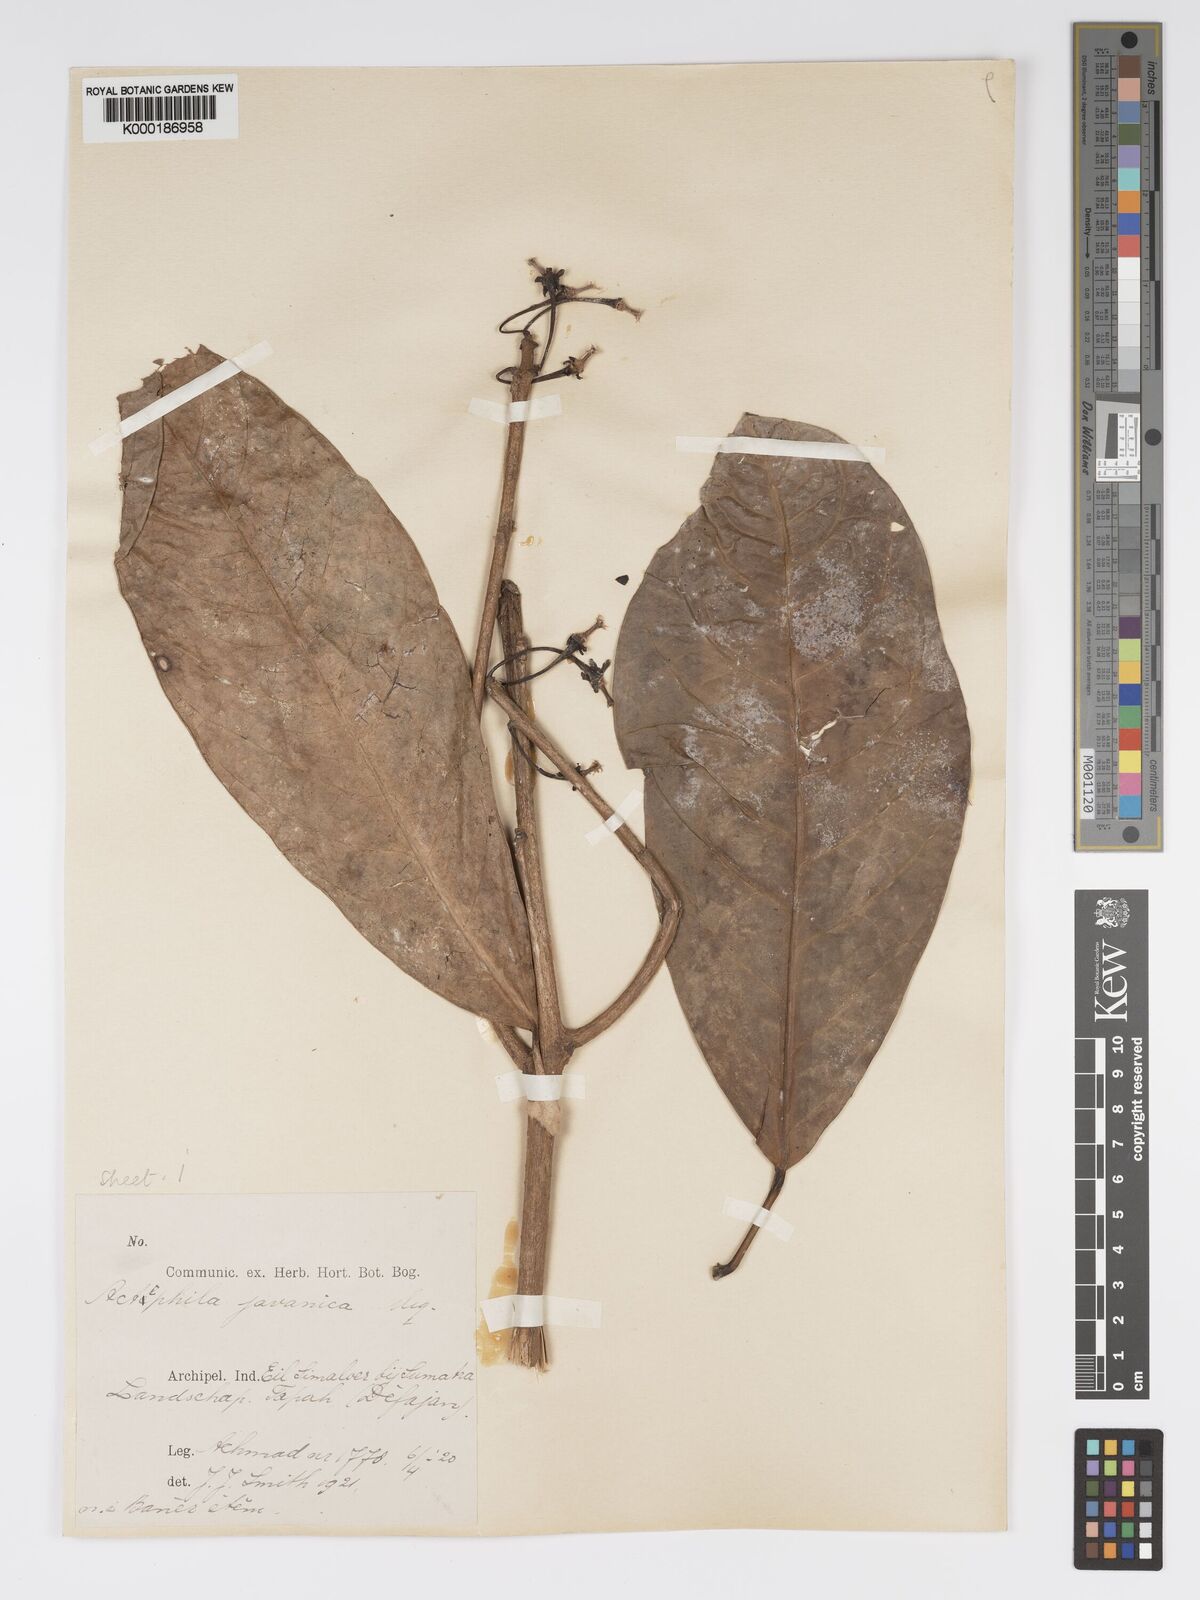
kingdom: Plantae
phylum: Tracheophyta
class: Magnoliopsida
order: Malpighiales
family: Phyllanthaceae
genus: Actephila
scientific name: Actephila
